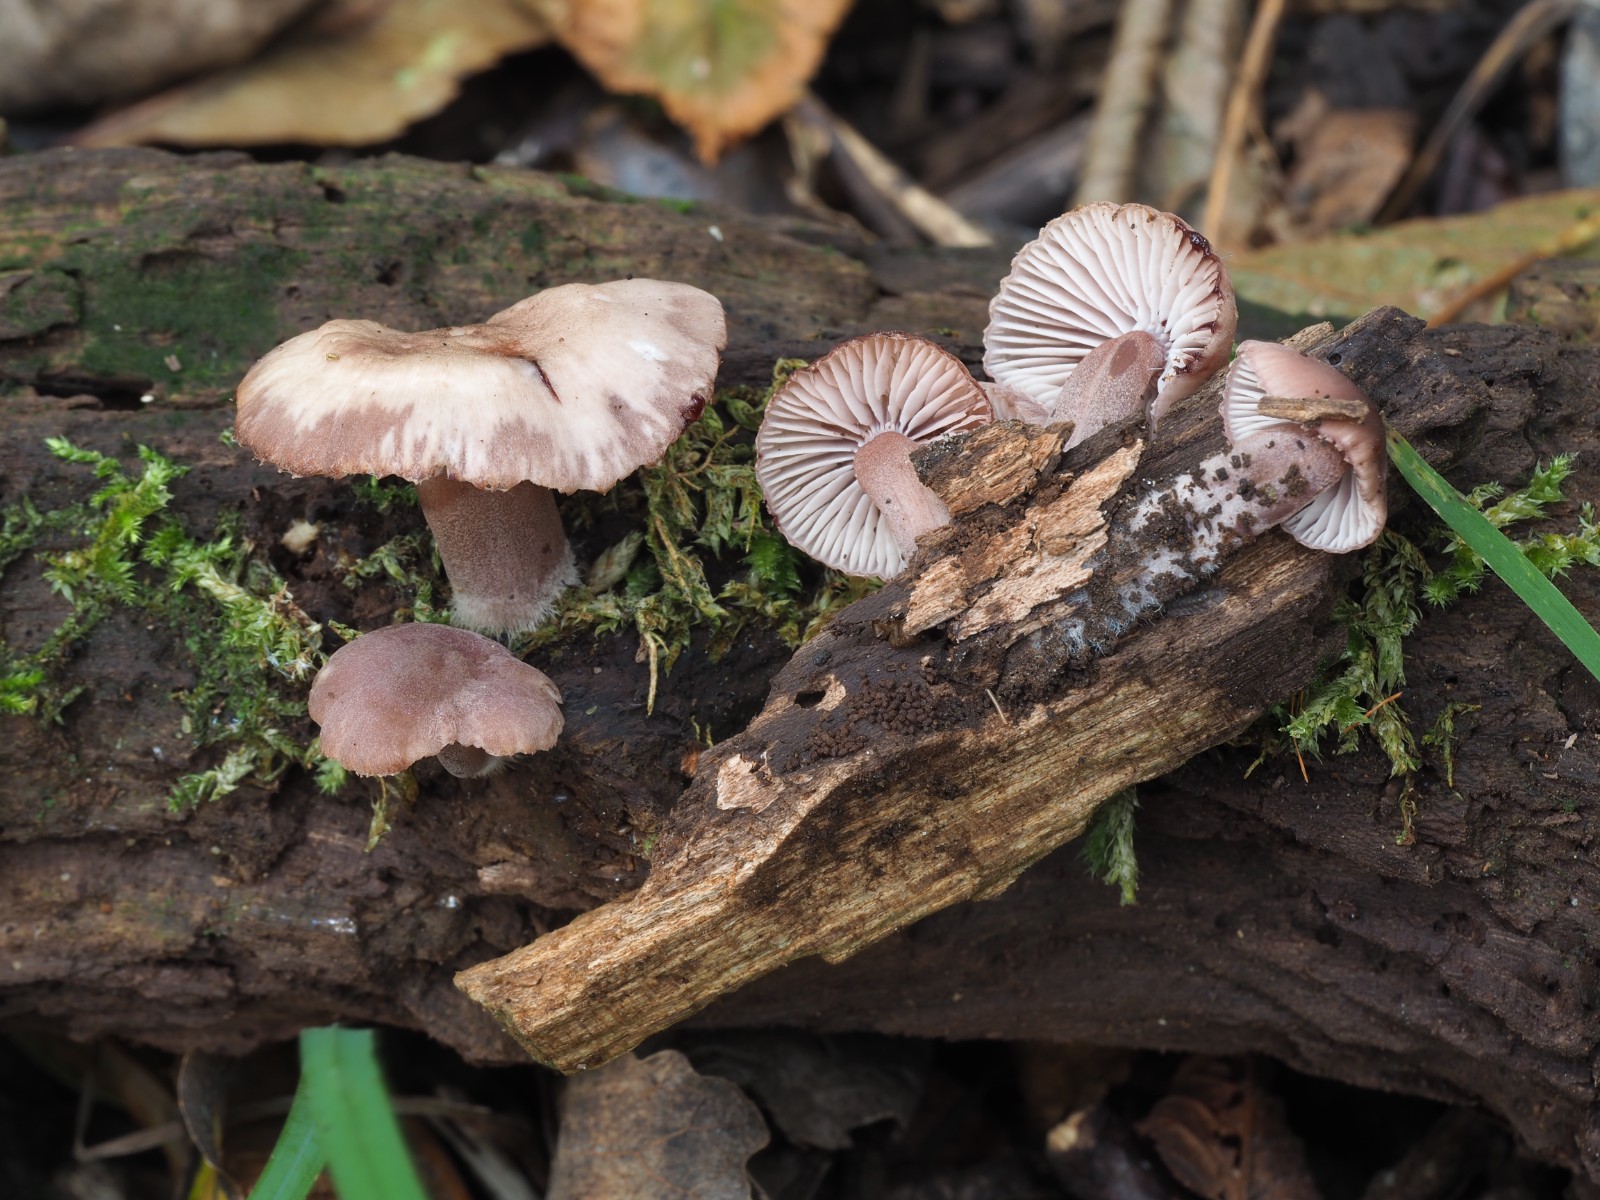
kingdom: Fungi
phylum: Basidiomycota
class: Agaricomycetes
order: Agaricales
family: Mycenaceae
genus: Mycena
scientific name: Mycena haematopus
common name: blødende huesvamp
